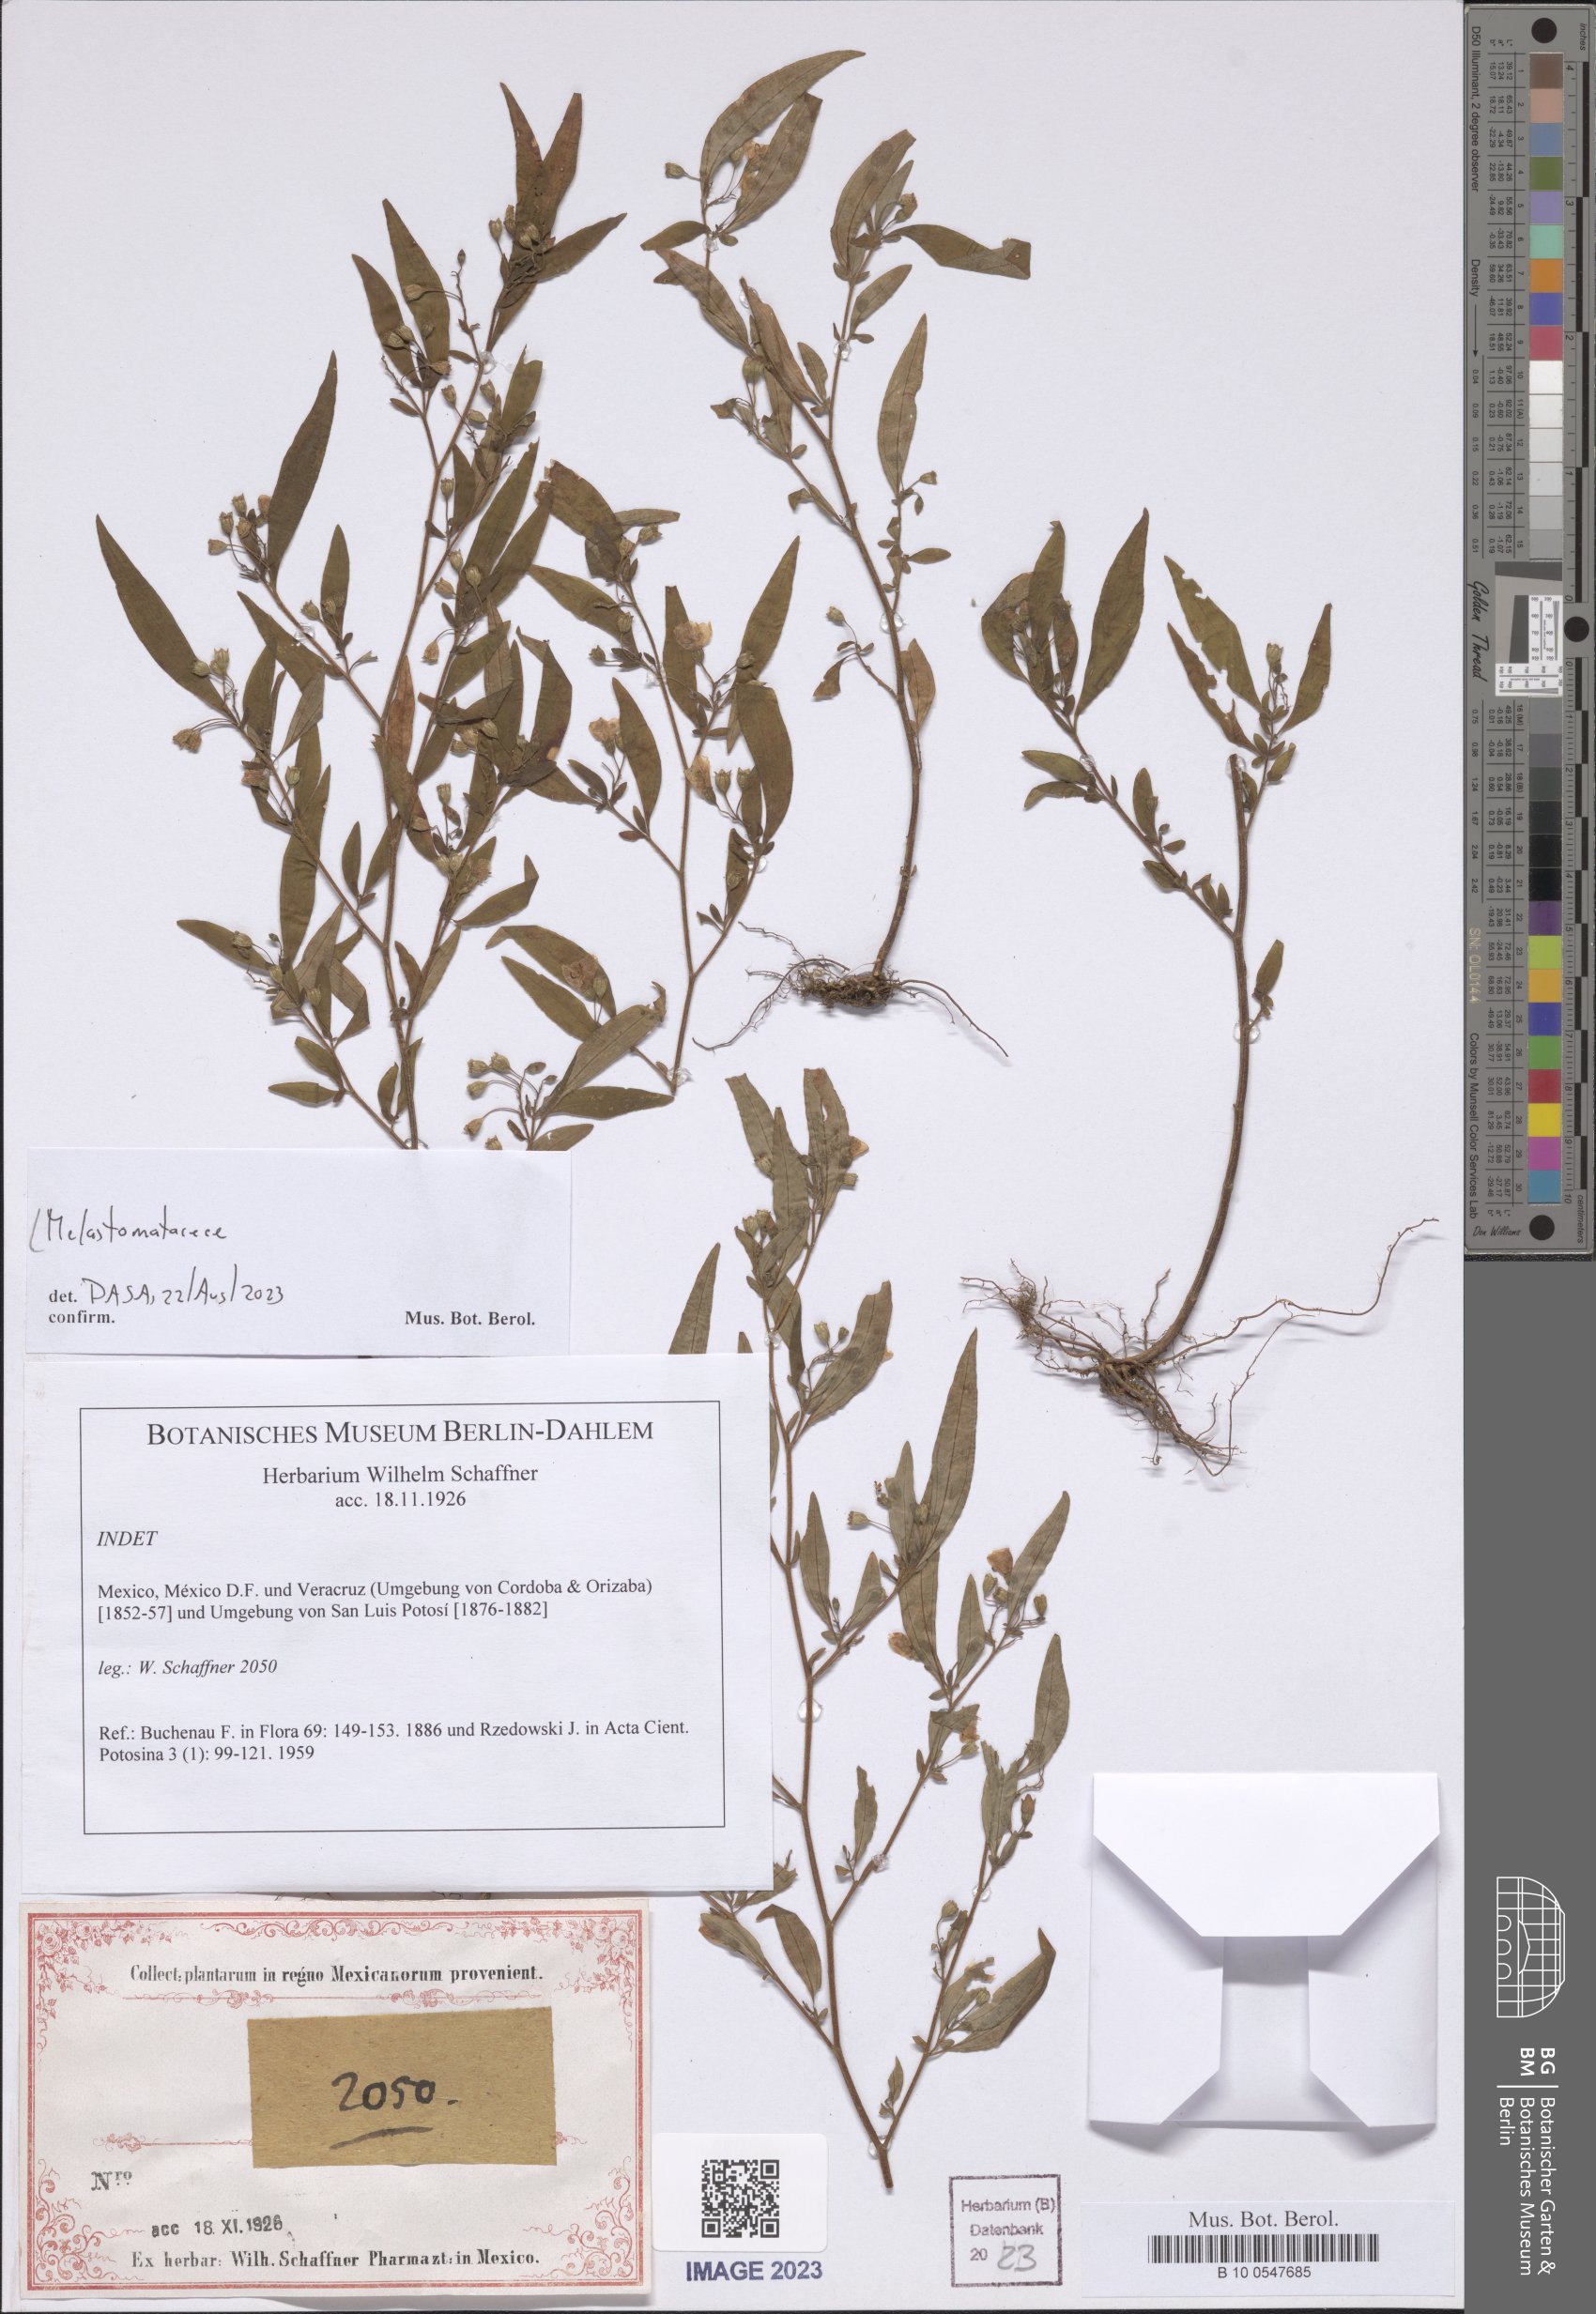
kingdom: Plantae
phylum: Tracheophyta
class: Magnoliopsida
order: Myrtales
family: Melastomataceae
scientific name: Melastomataceae
